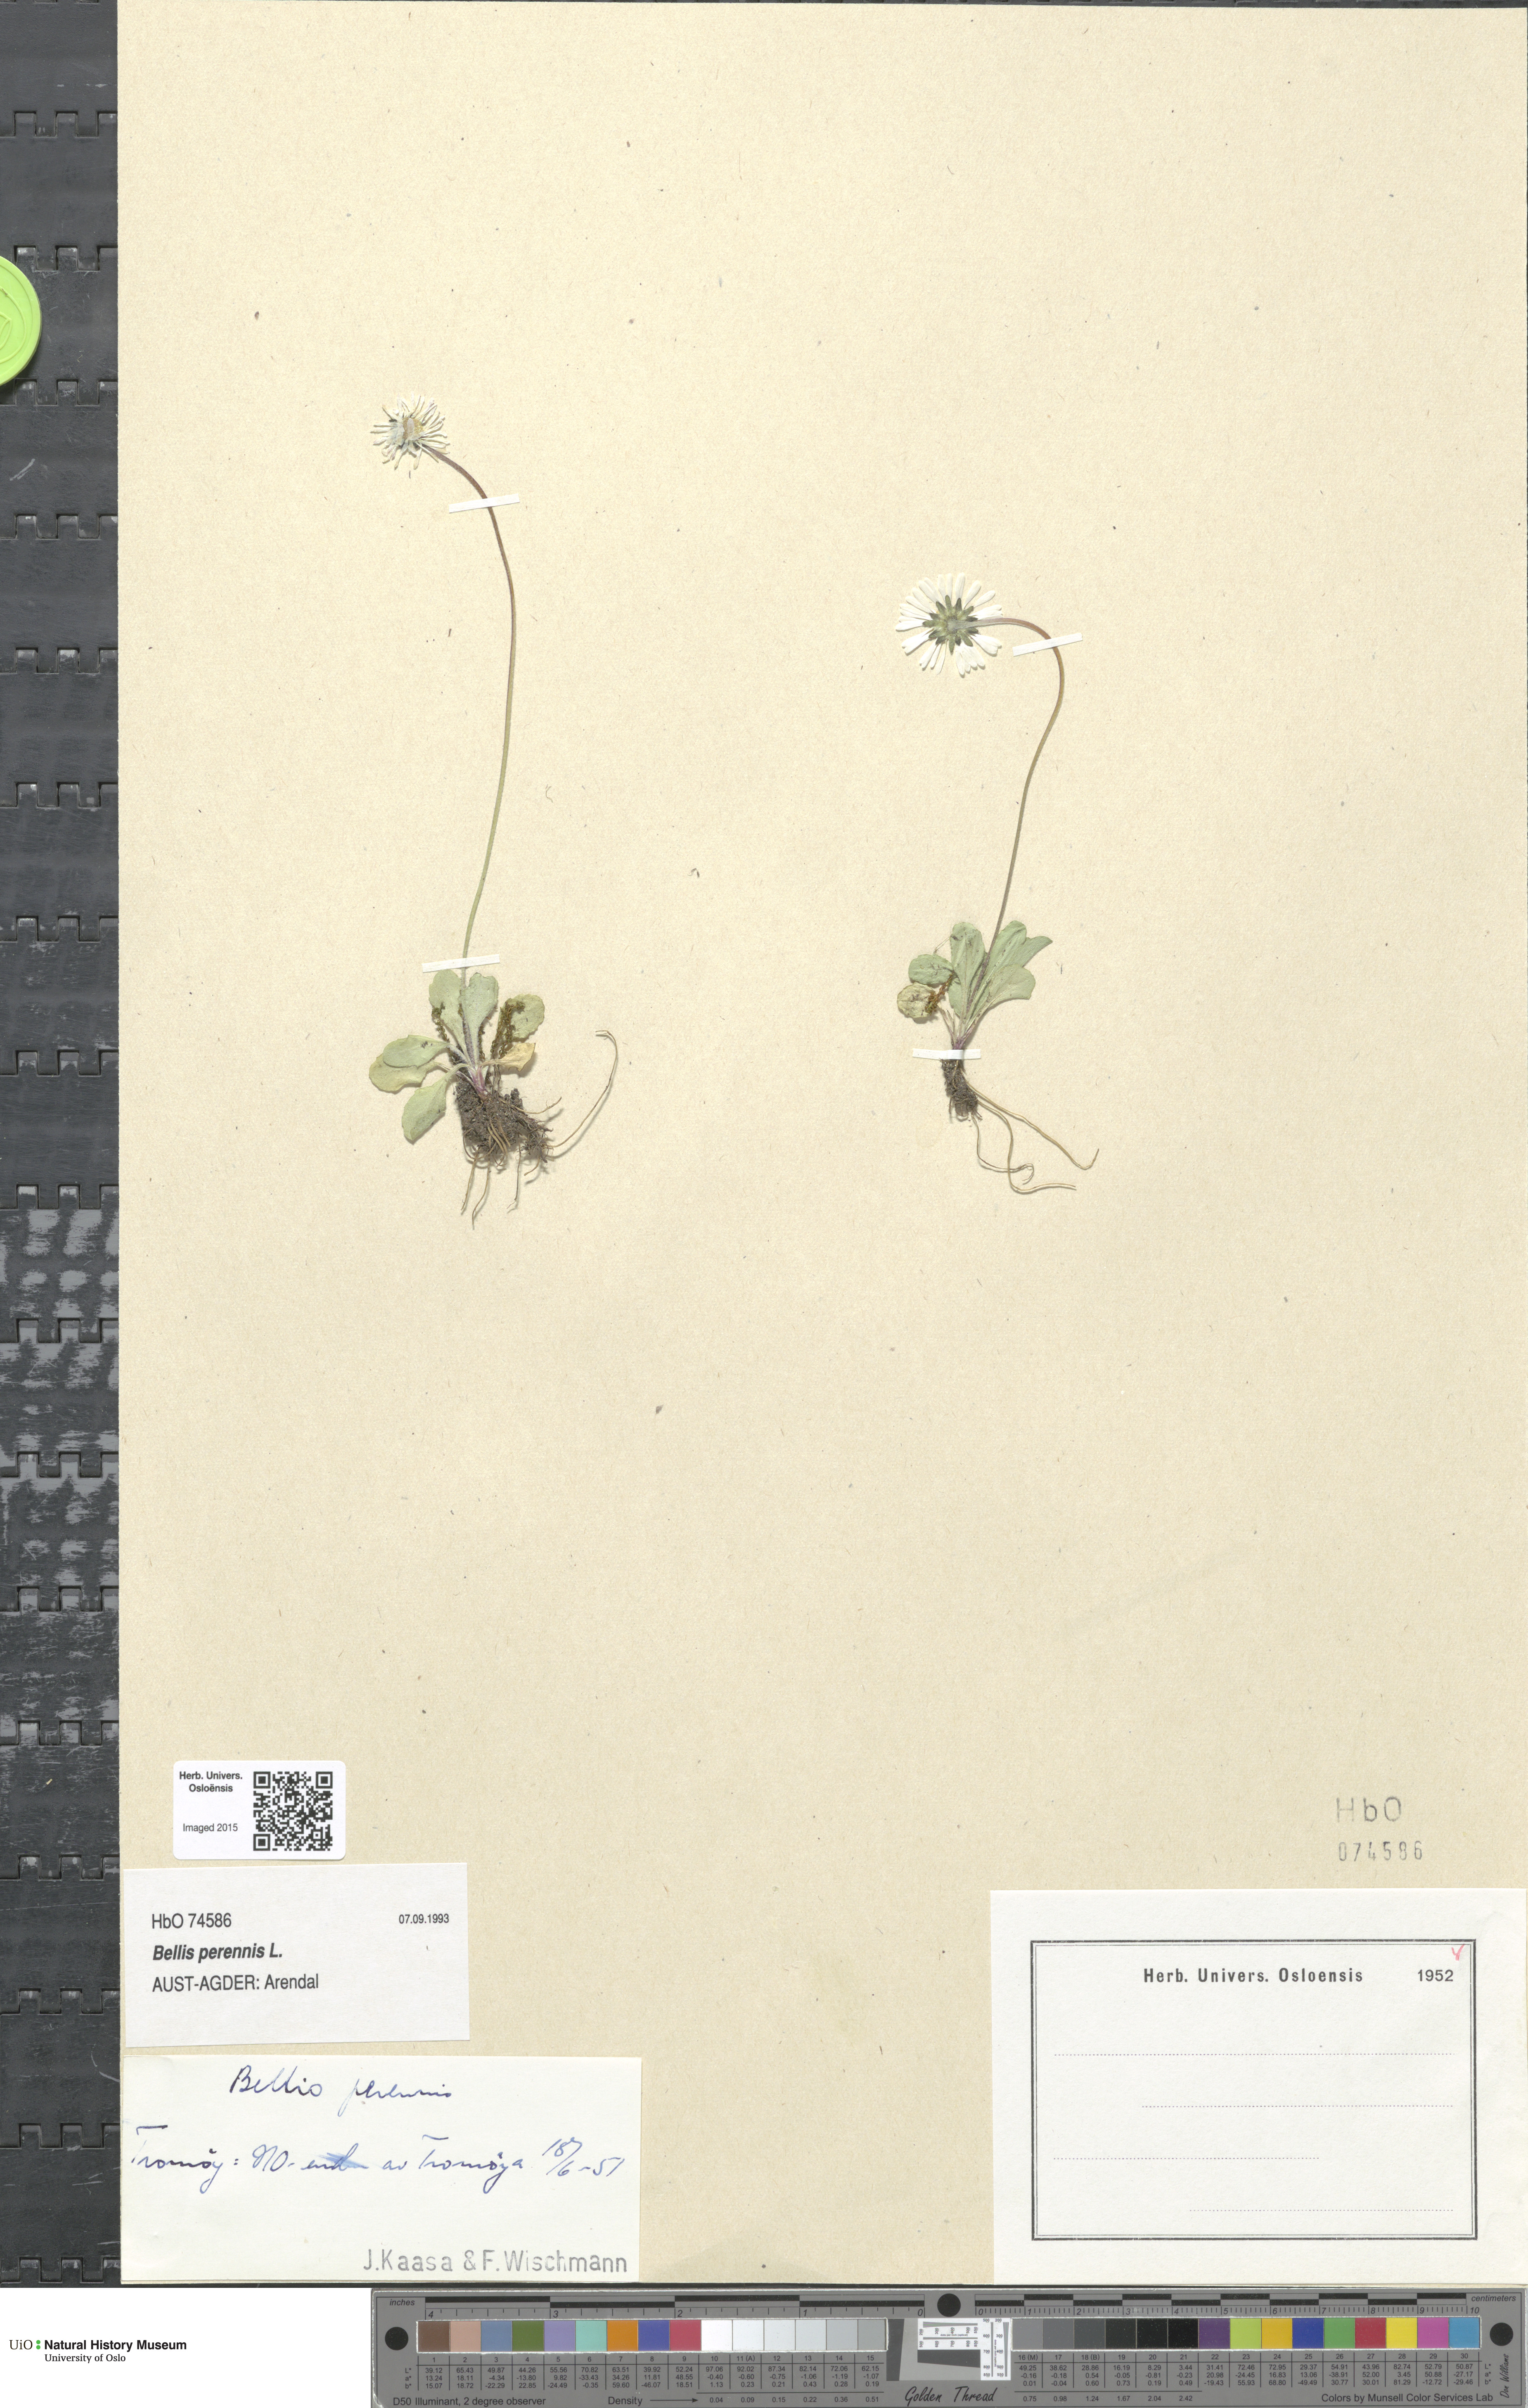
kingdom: Plantae
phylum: Tracheophyta
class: Magnoliopsida
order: Asterales
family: Asteraceae
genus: Bellis
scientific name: Bellis perennis
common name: Lawndaisy
